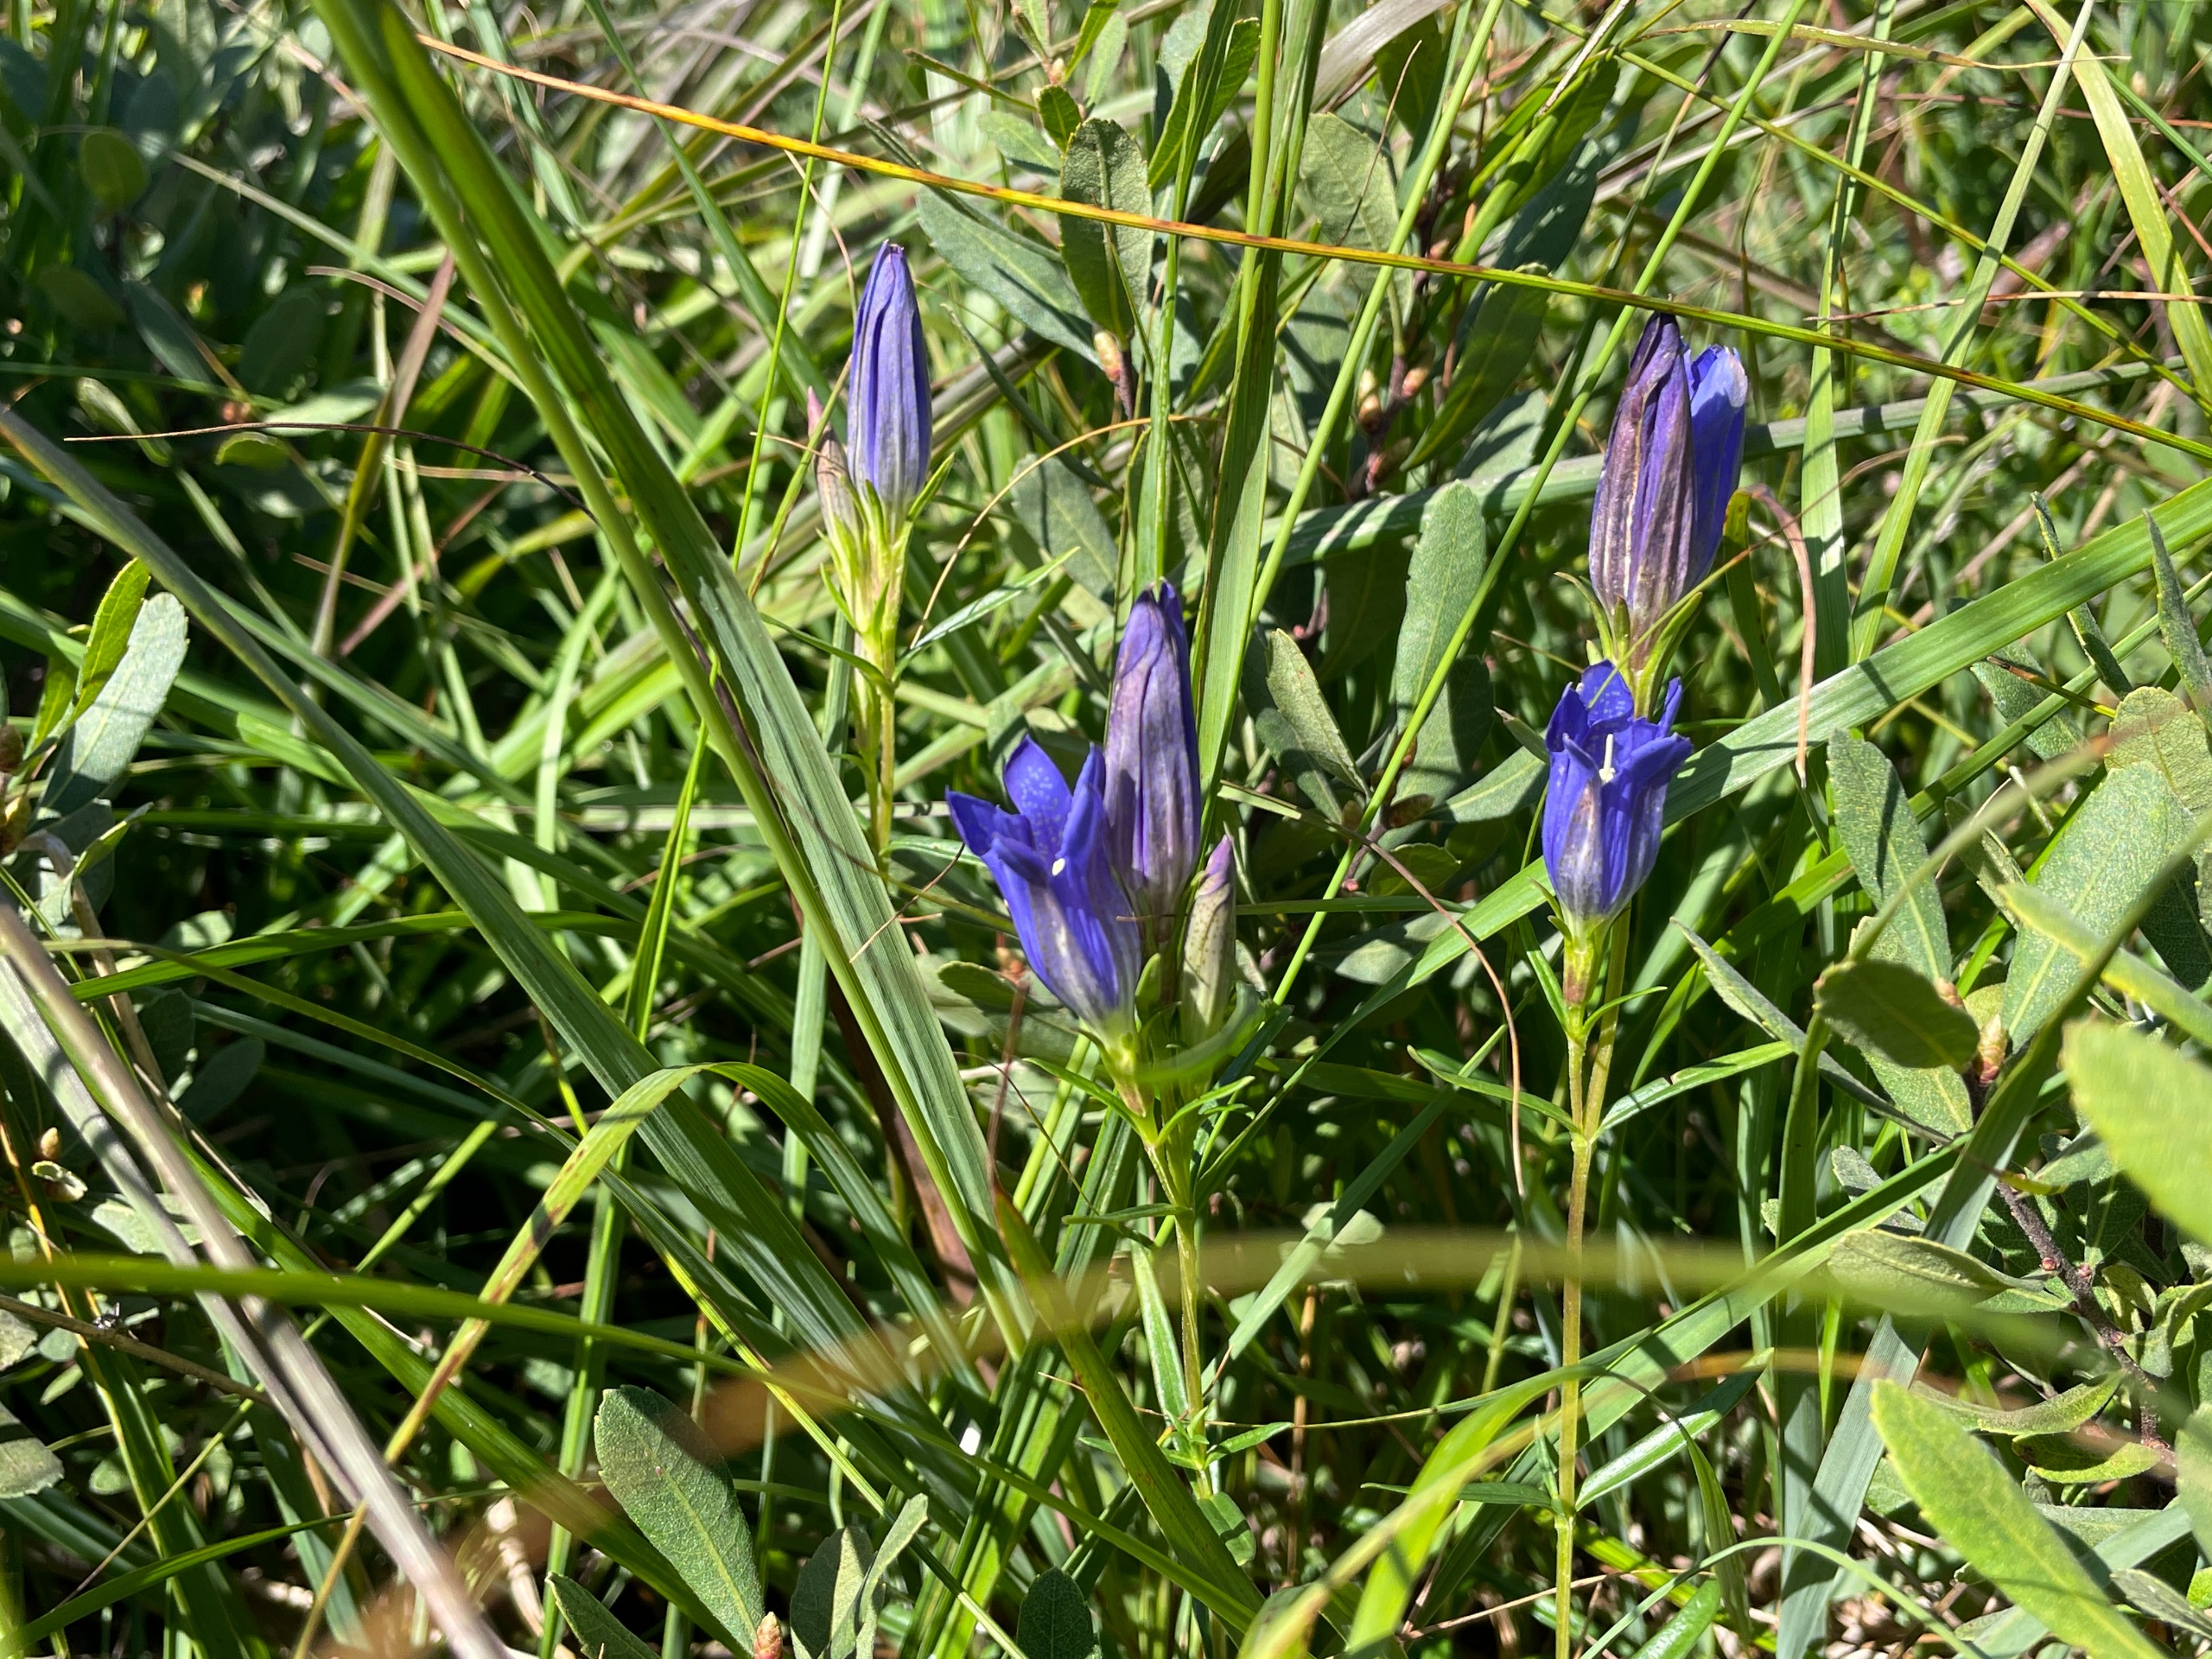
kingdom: Plantae
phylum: Tracheophyta
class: Magnoliopsida
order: Gentianales
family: Gentianaceae
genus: Gentiana
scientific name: Gentiana pneumonanthe
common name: Klokke-ensian
